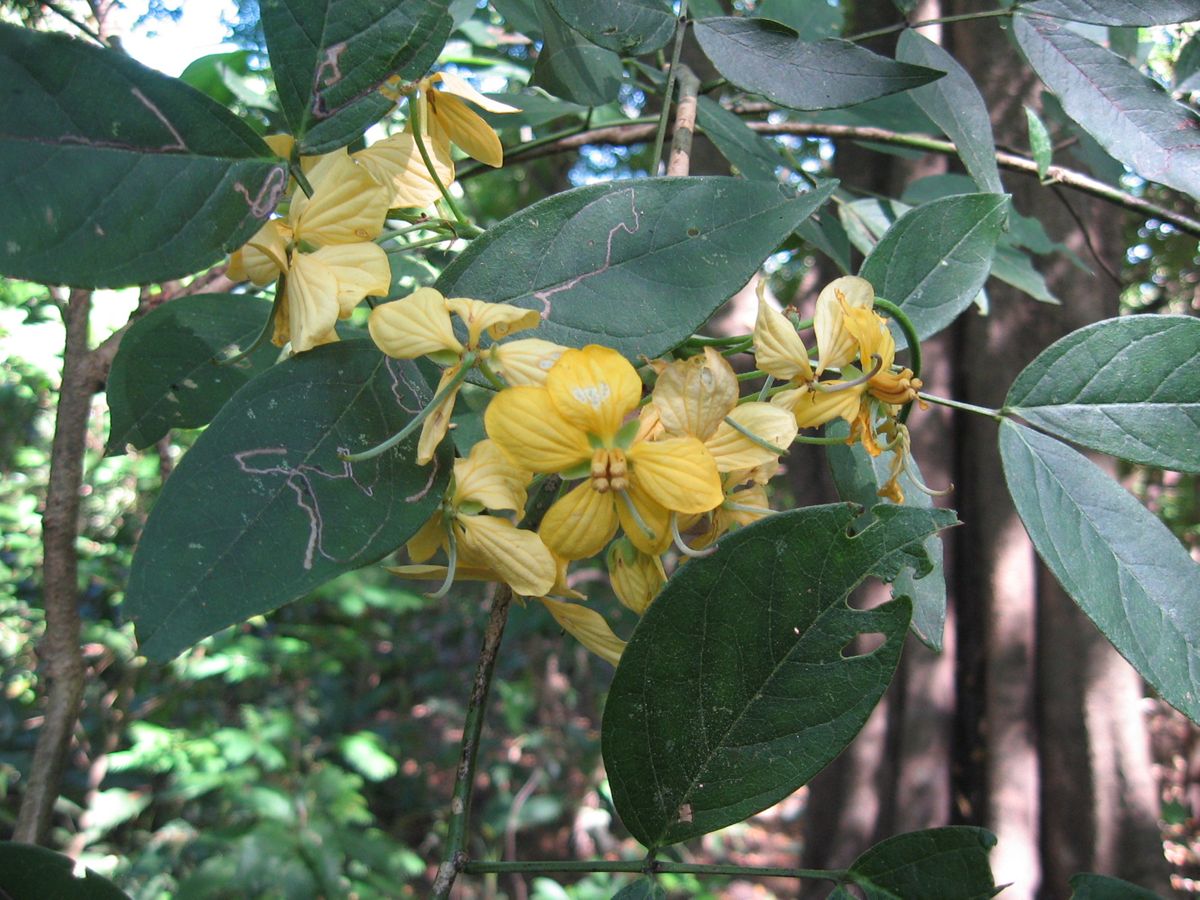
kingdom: Plantae
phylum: Tracheophyta
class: Magnoliopsida
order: Fabales
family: Fabaceae
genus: Senna
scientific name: Senna hayesiana
